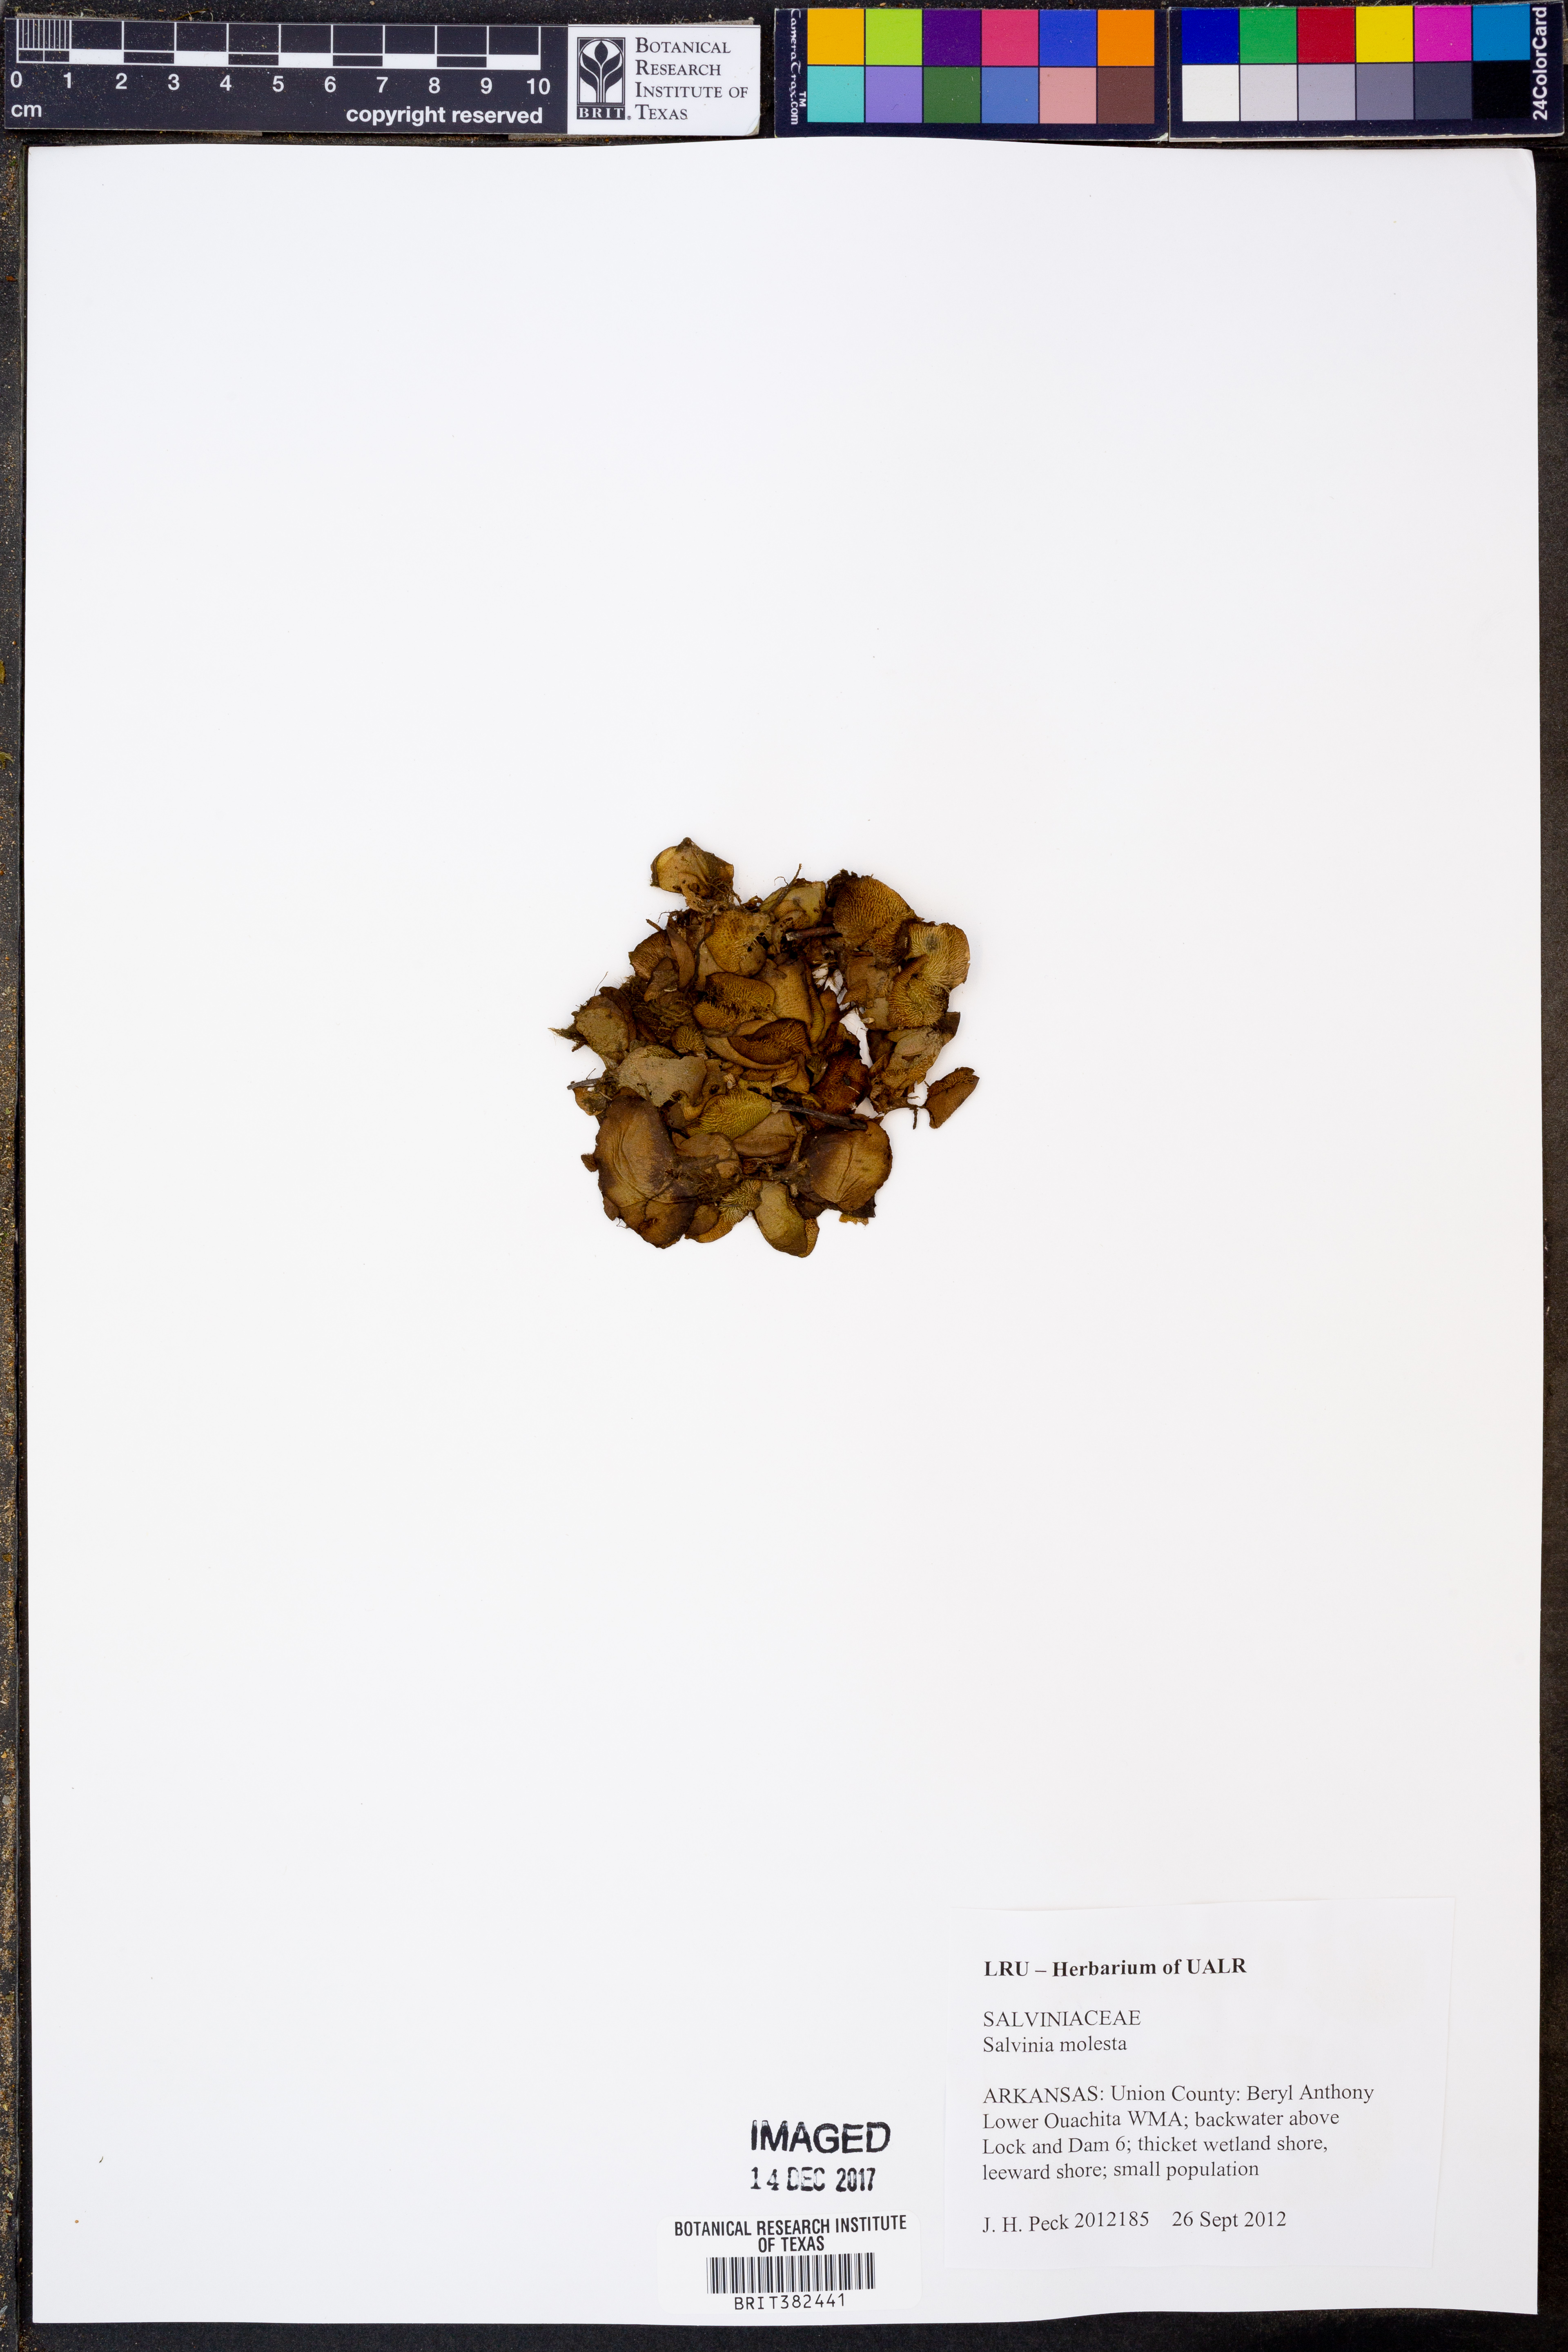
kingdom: Plantae
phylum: Tracheophyta
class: Polypodiopsida
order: Salviniales
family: Salviniaceae
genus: Salvinia
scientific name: Salvinia molesta
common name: Kariba weed
